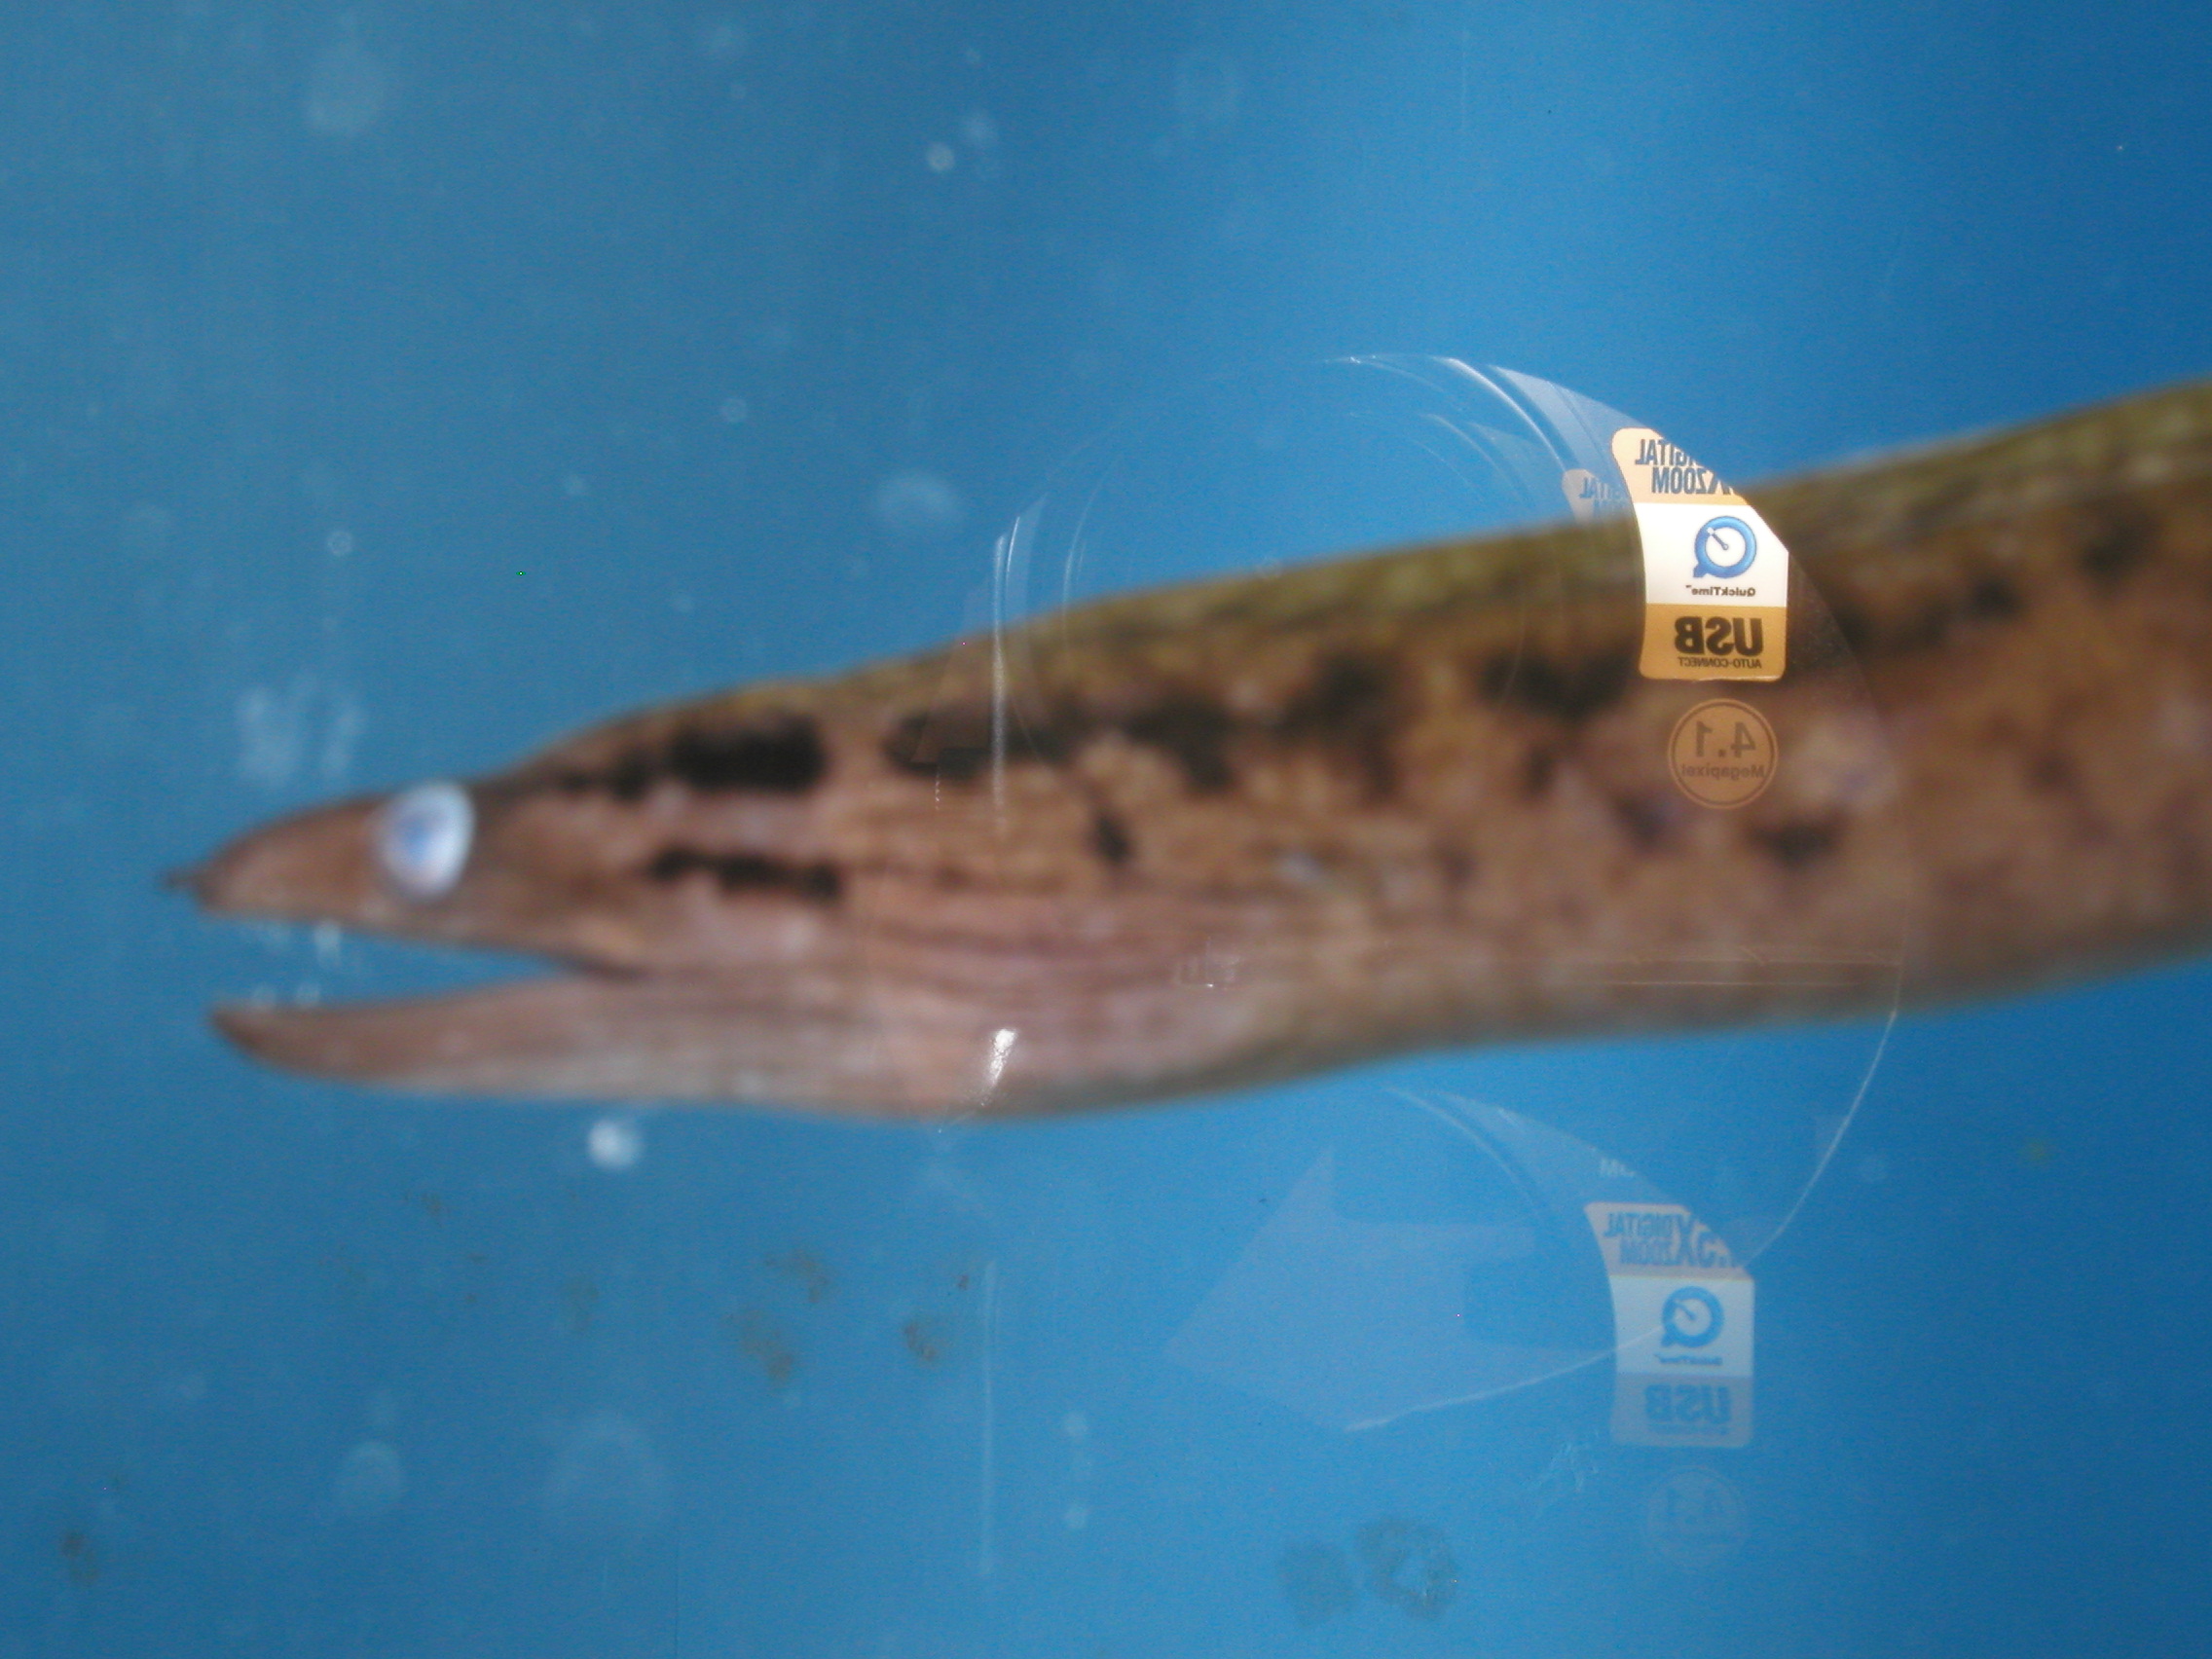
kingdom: Animalia
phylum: Chordata
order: Anguilliformes
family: Muraenidae
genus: Gymnothorax
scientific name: Gymnothorax margaritophorus
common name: Blotch-necked moray
